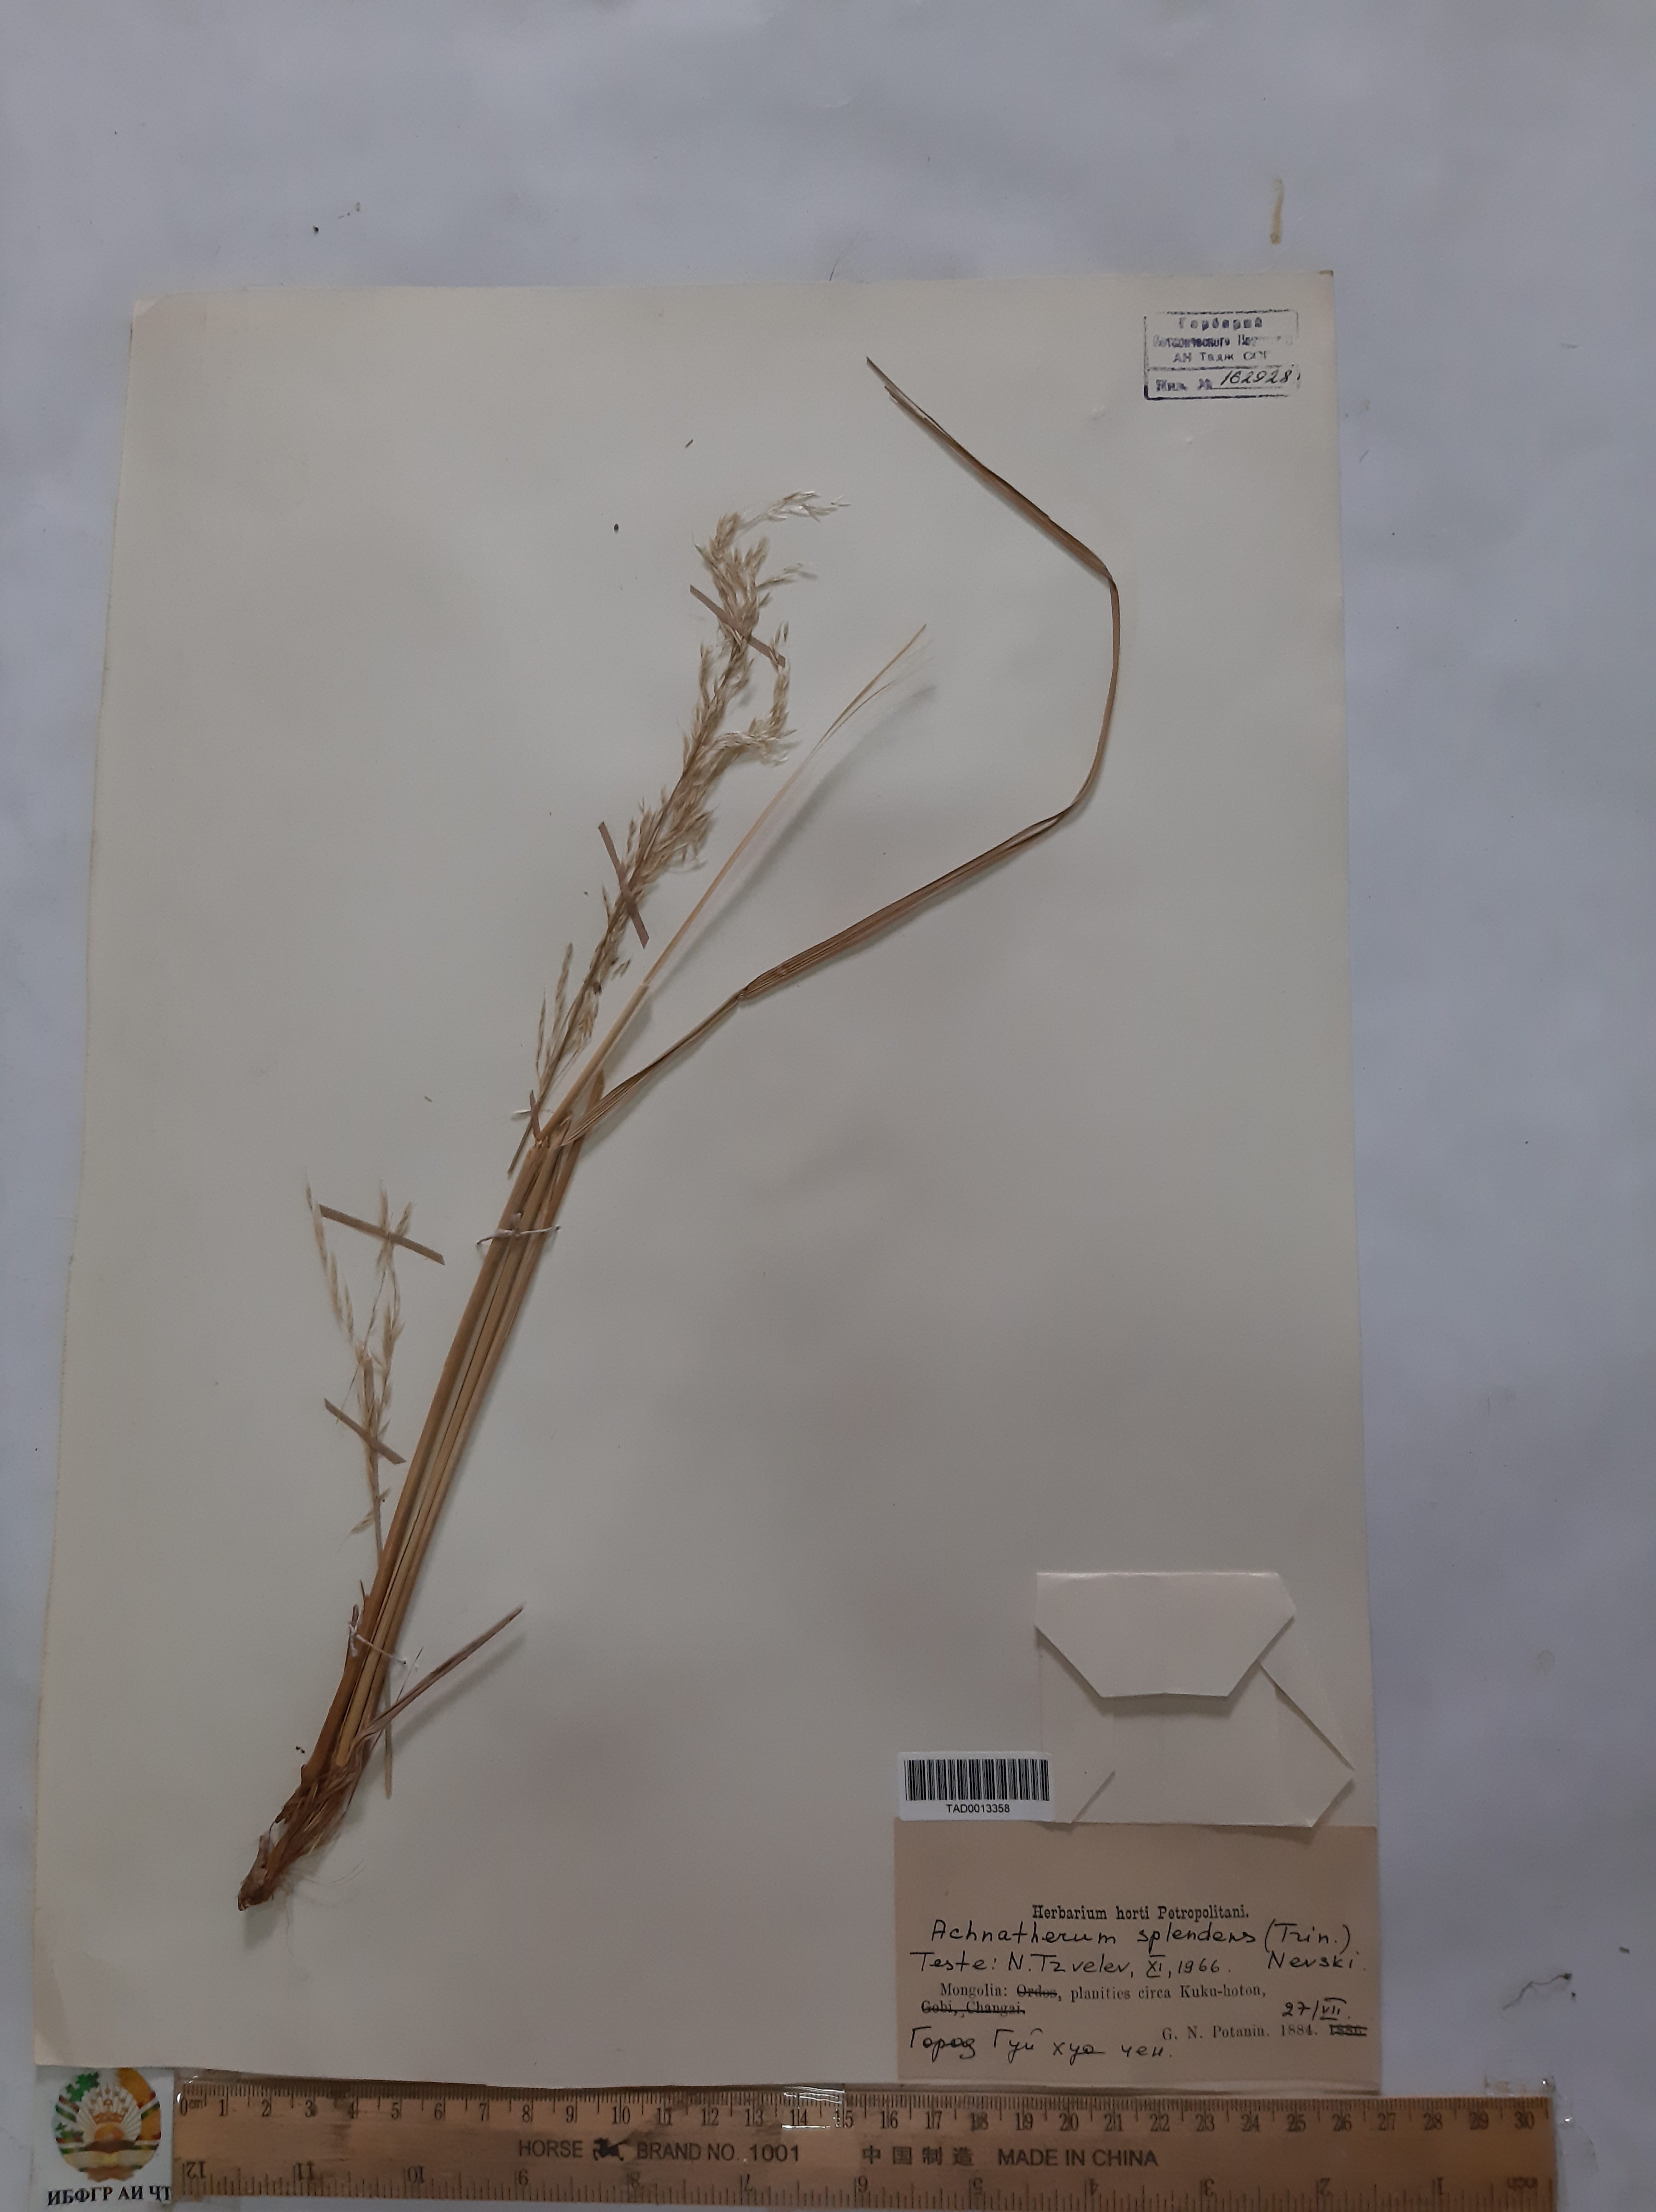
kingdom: Plantae
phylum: Tracheophyta
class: Liliopsida
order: Poales
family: Poaceae
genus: Neotrinia
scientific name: Neotrinia splendens
